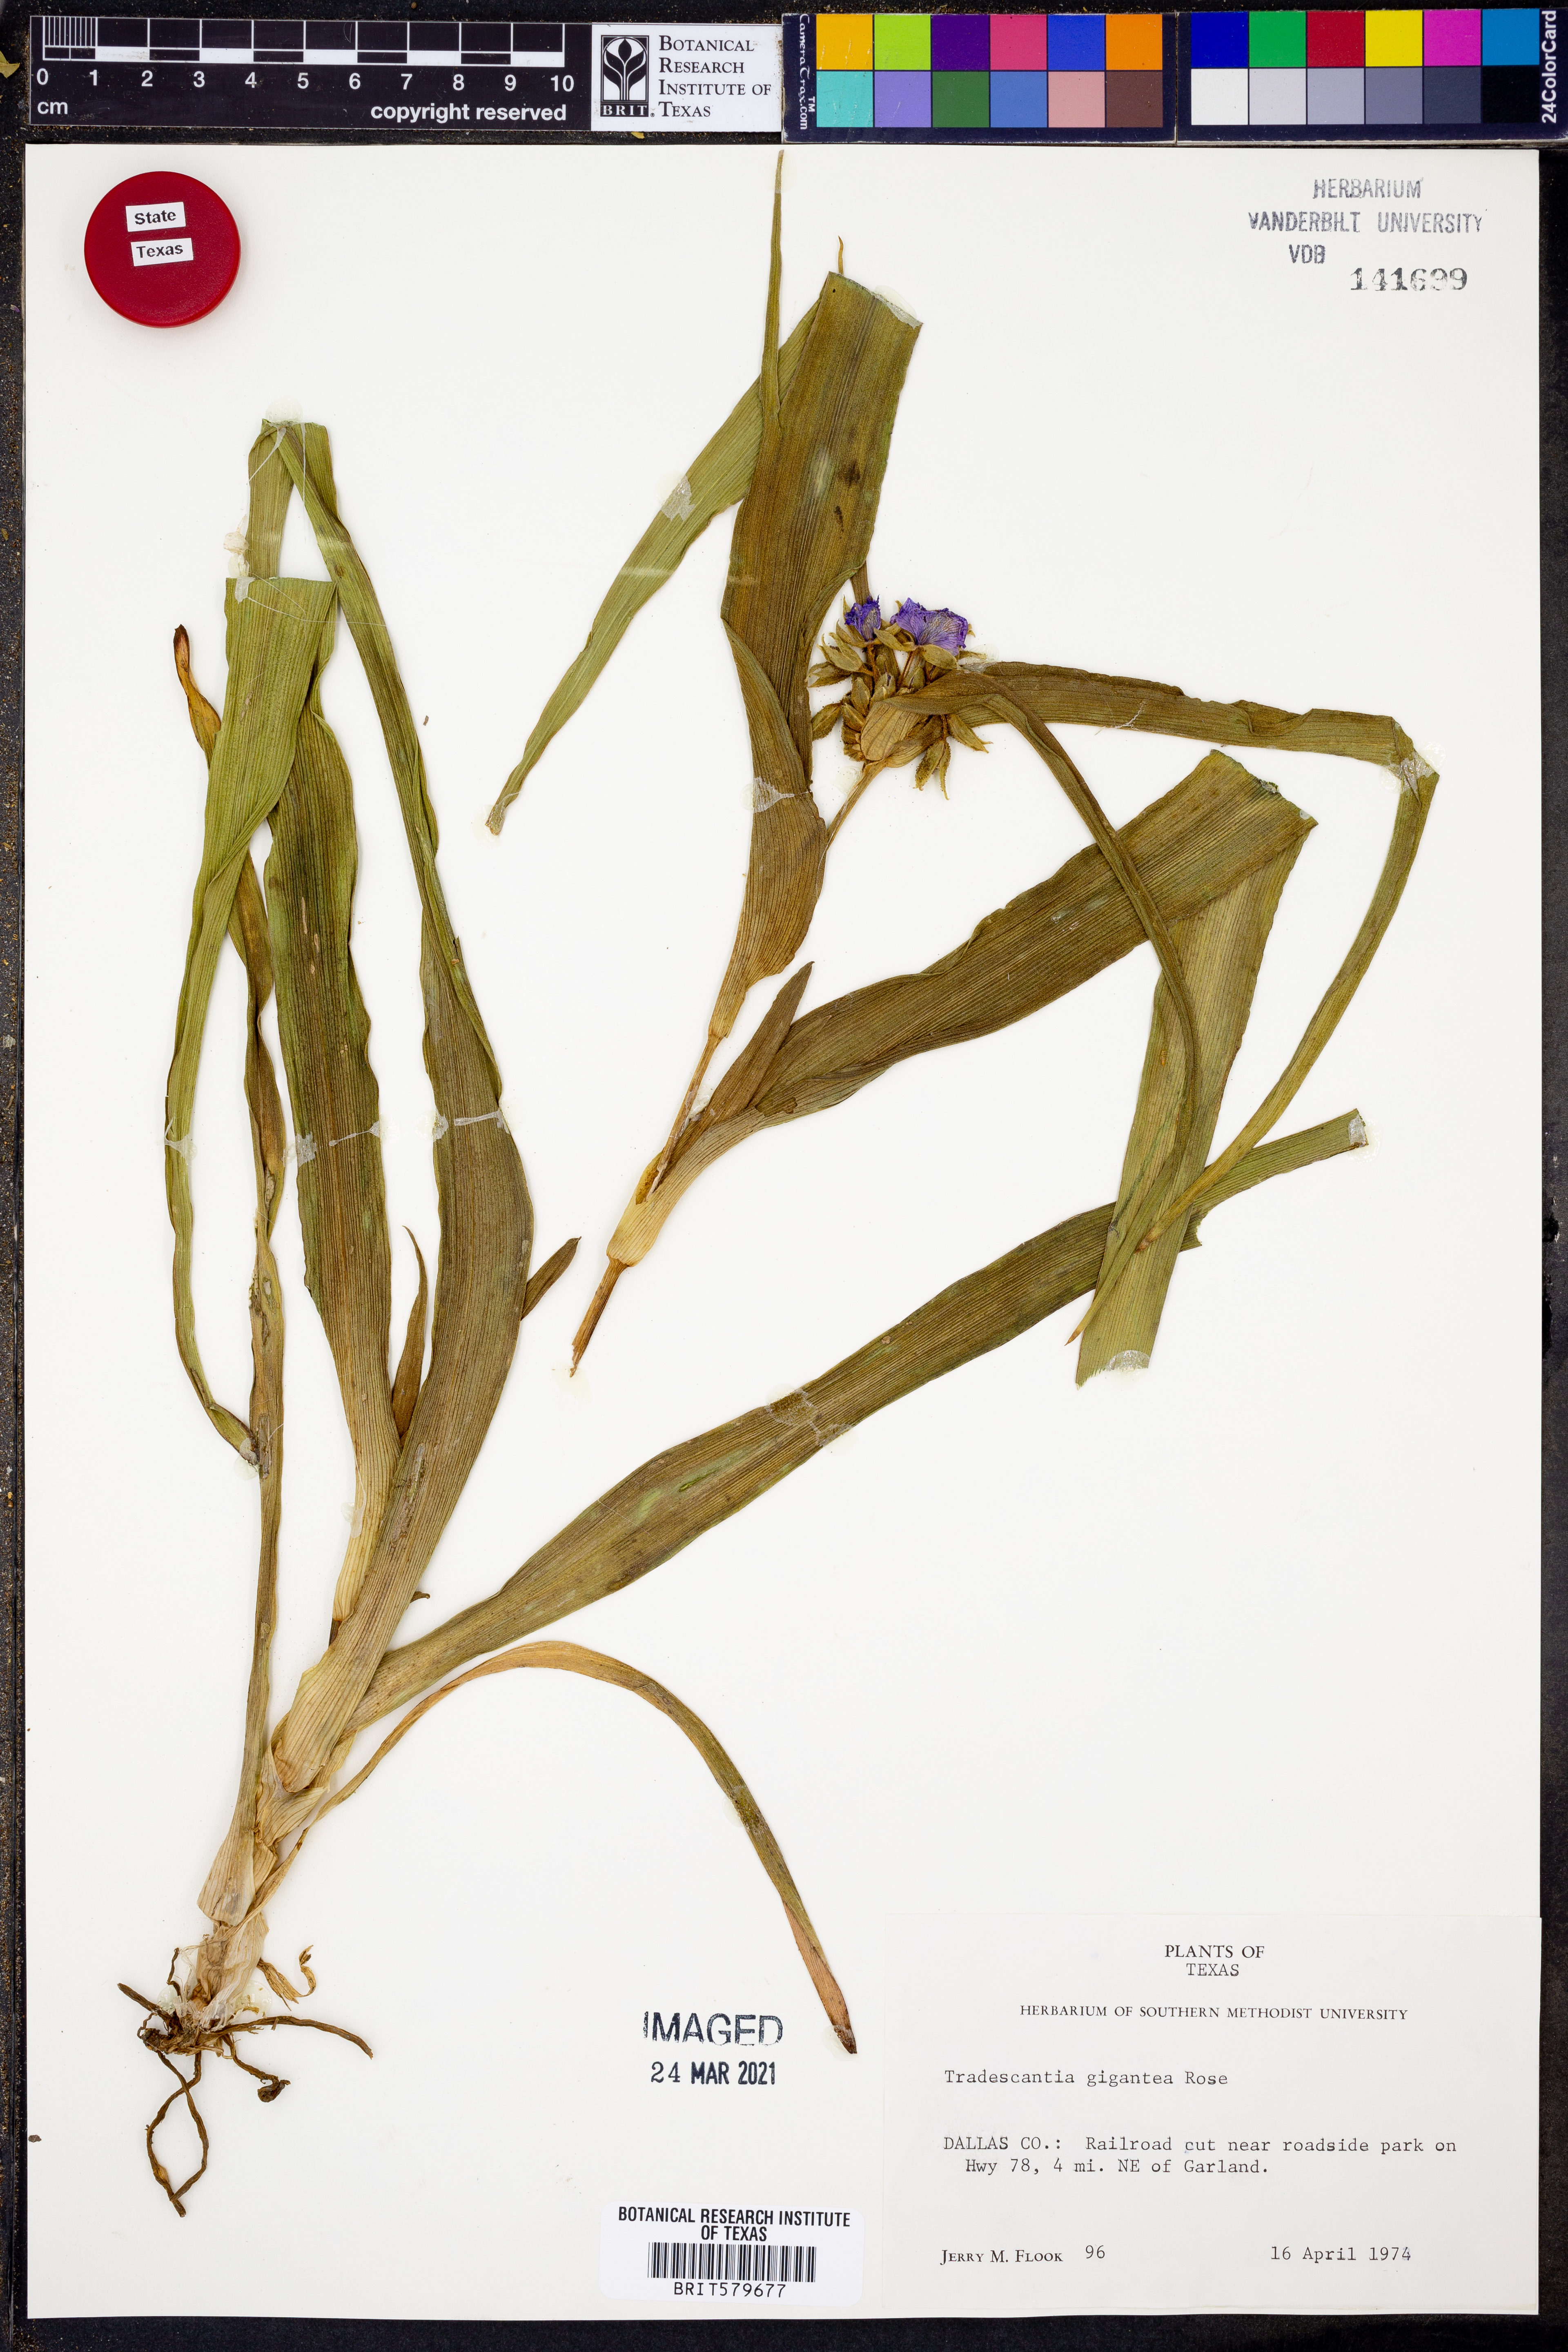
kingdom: Plantae
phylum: Tracheophyta
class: Liliopsida
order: Commelinales
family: Commelinaceae
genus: Tradescantia
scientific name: Tradescantia gigantea
